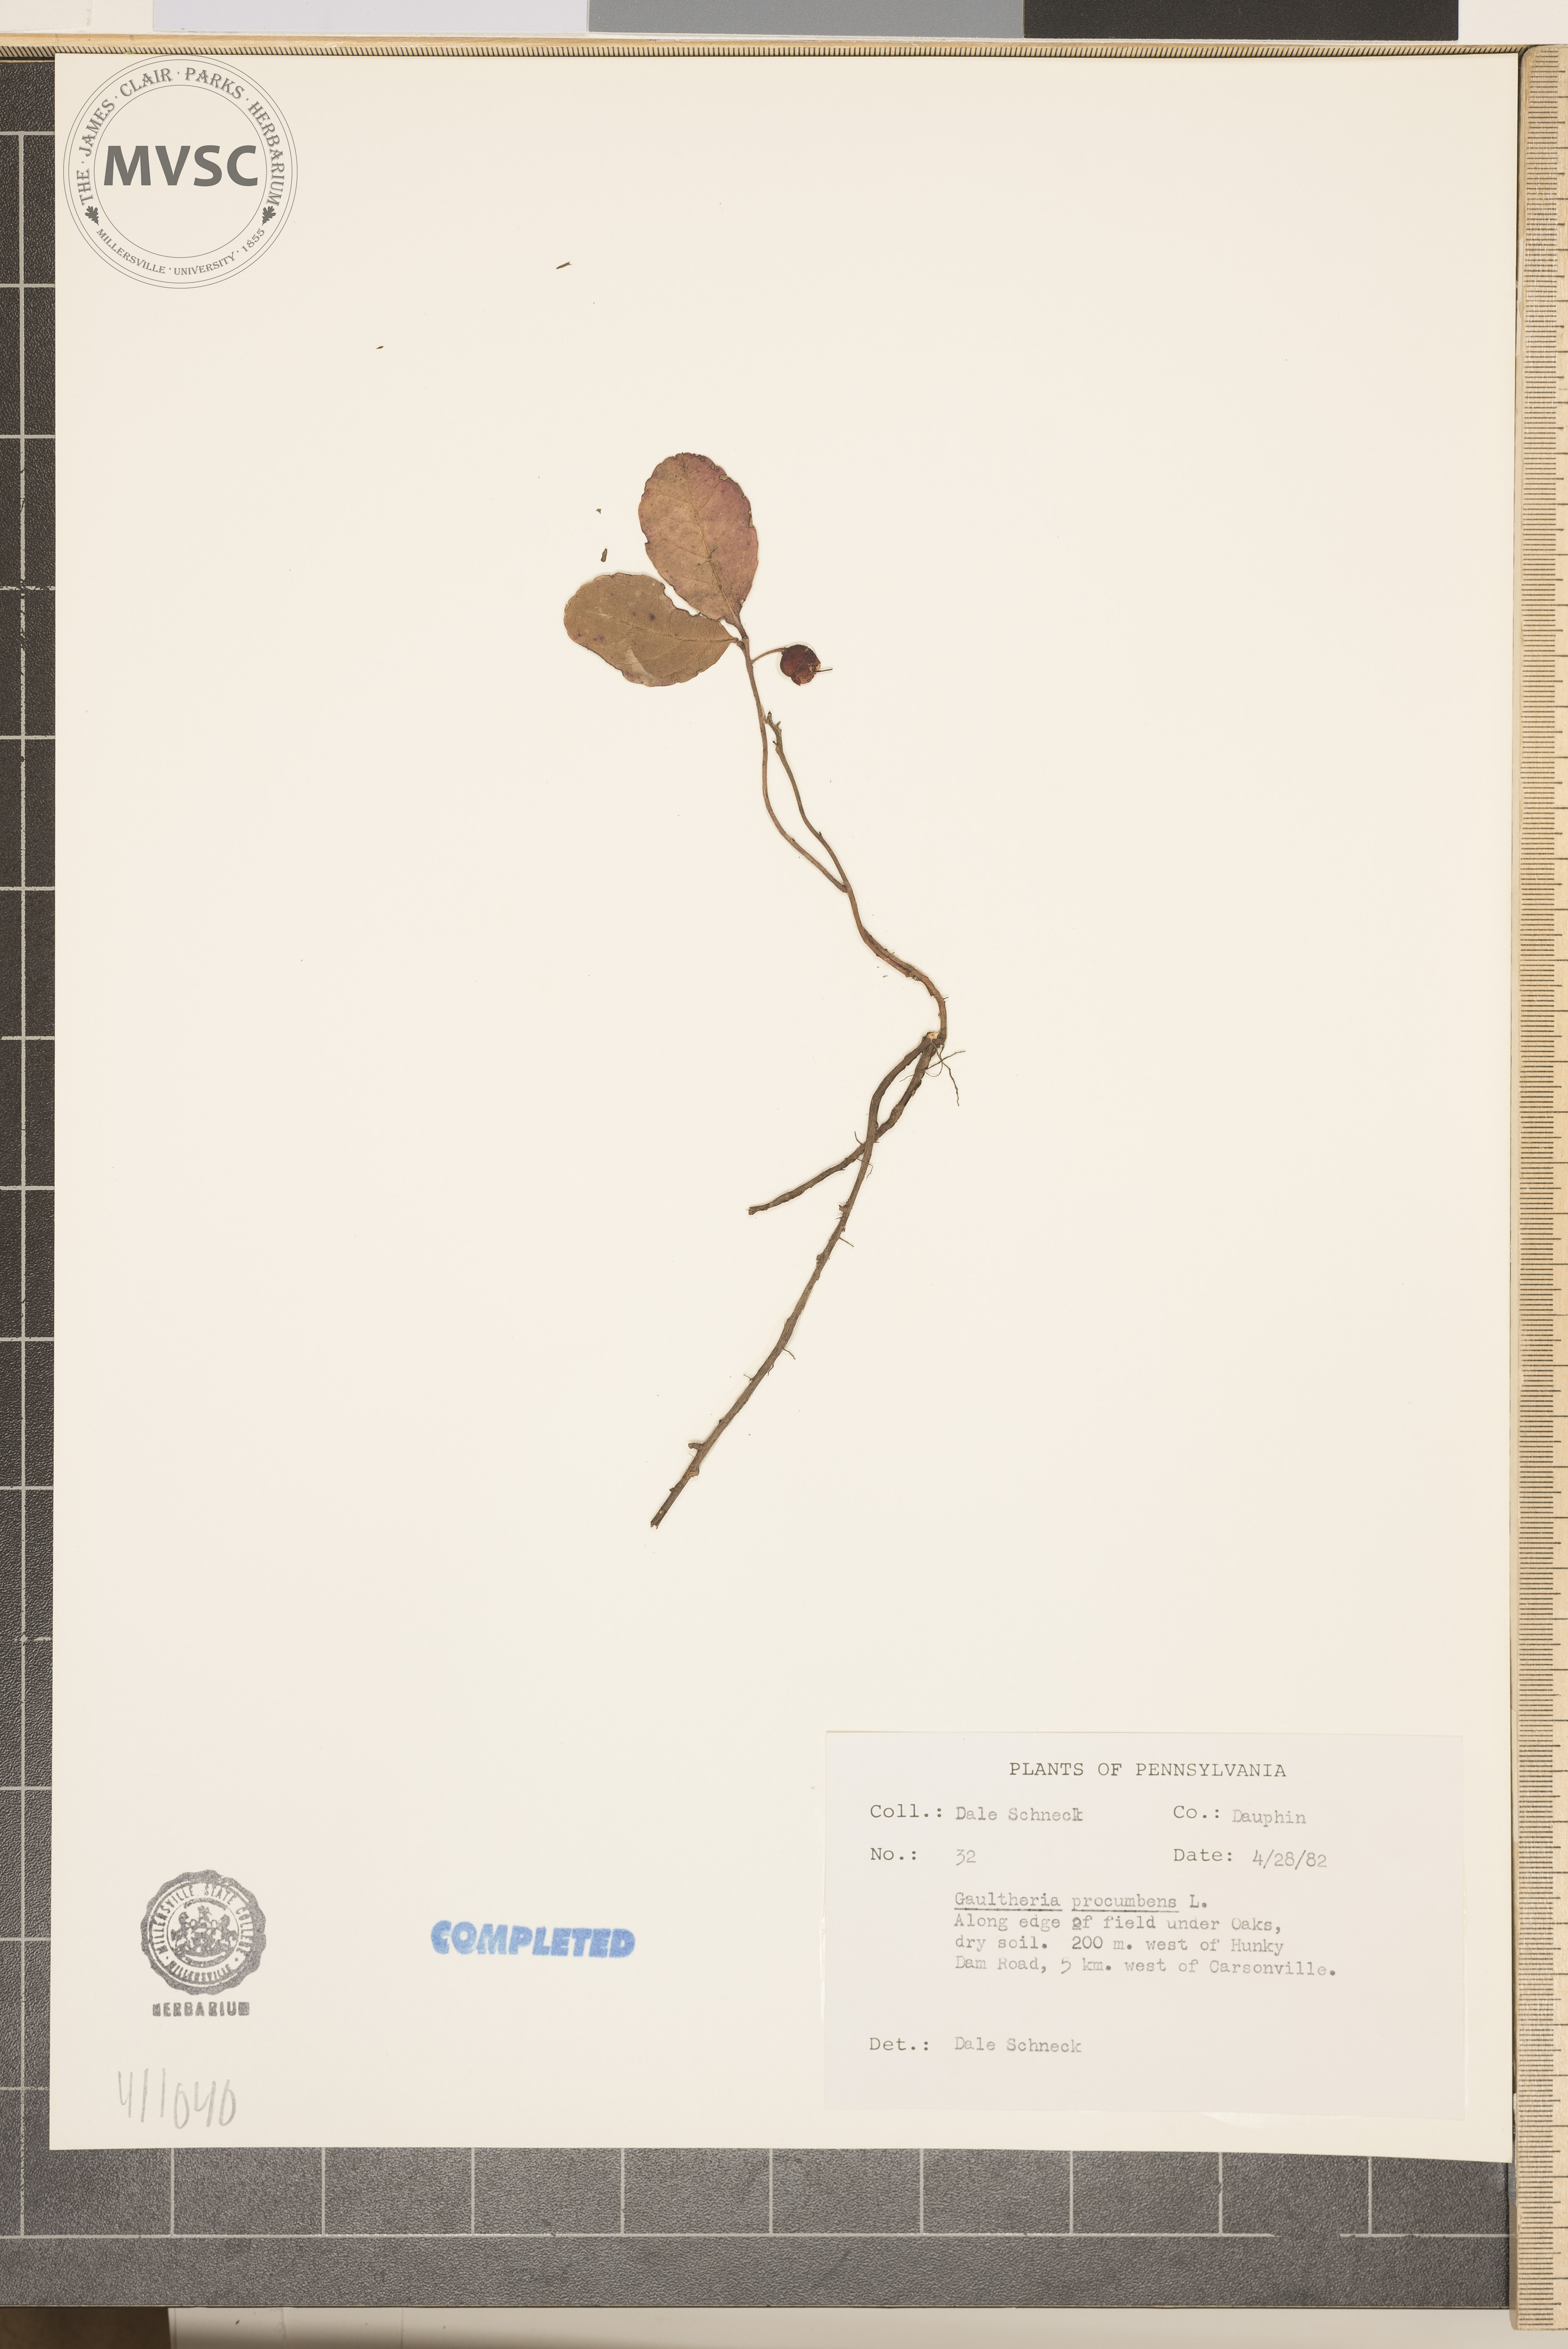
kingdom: Plantae
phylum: Tracheophyta
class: Magnoliopsida
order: Ericales
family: Ericaceae
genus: Gaultheria
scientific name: Gaultheria procumbens
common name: Checkerberry
